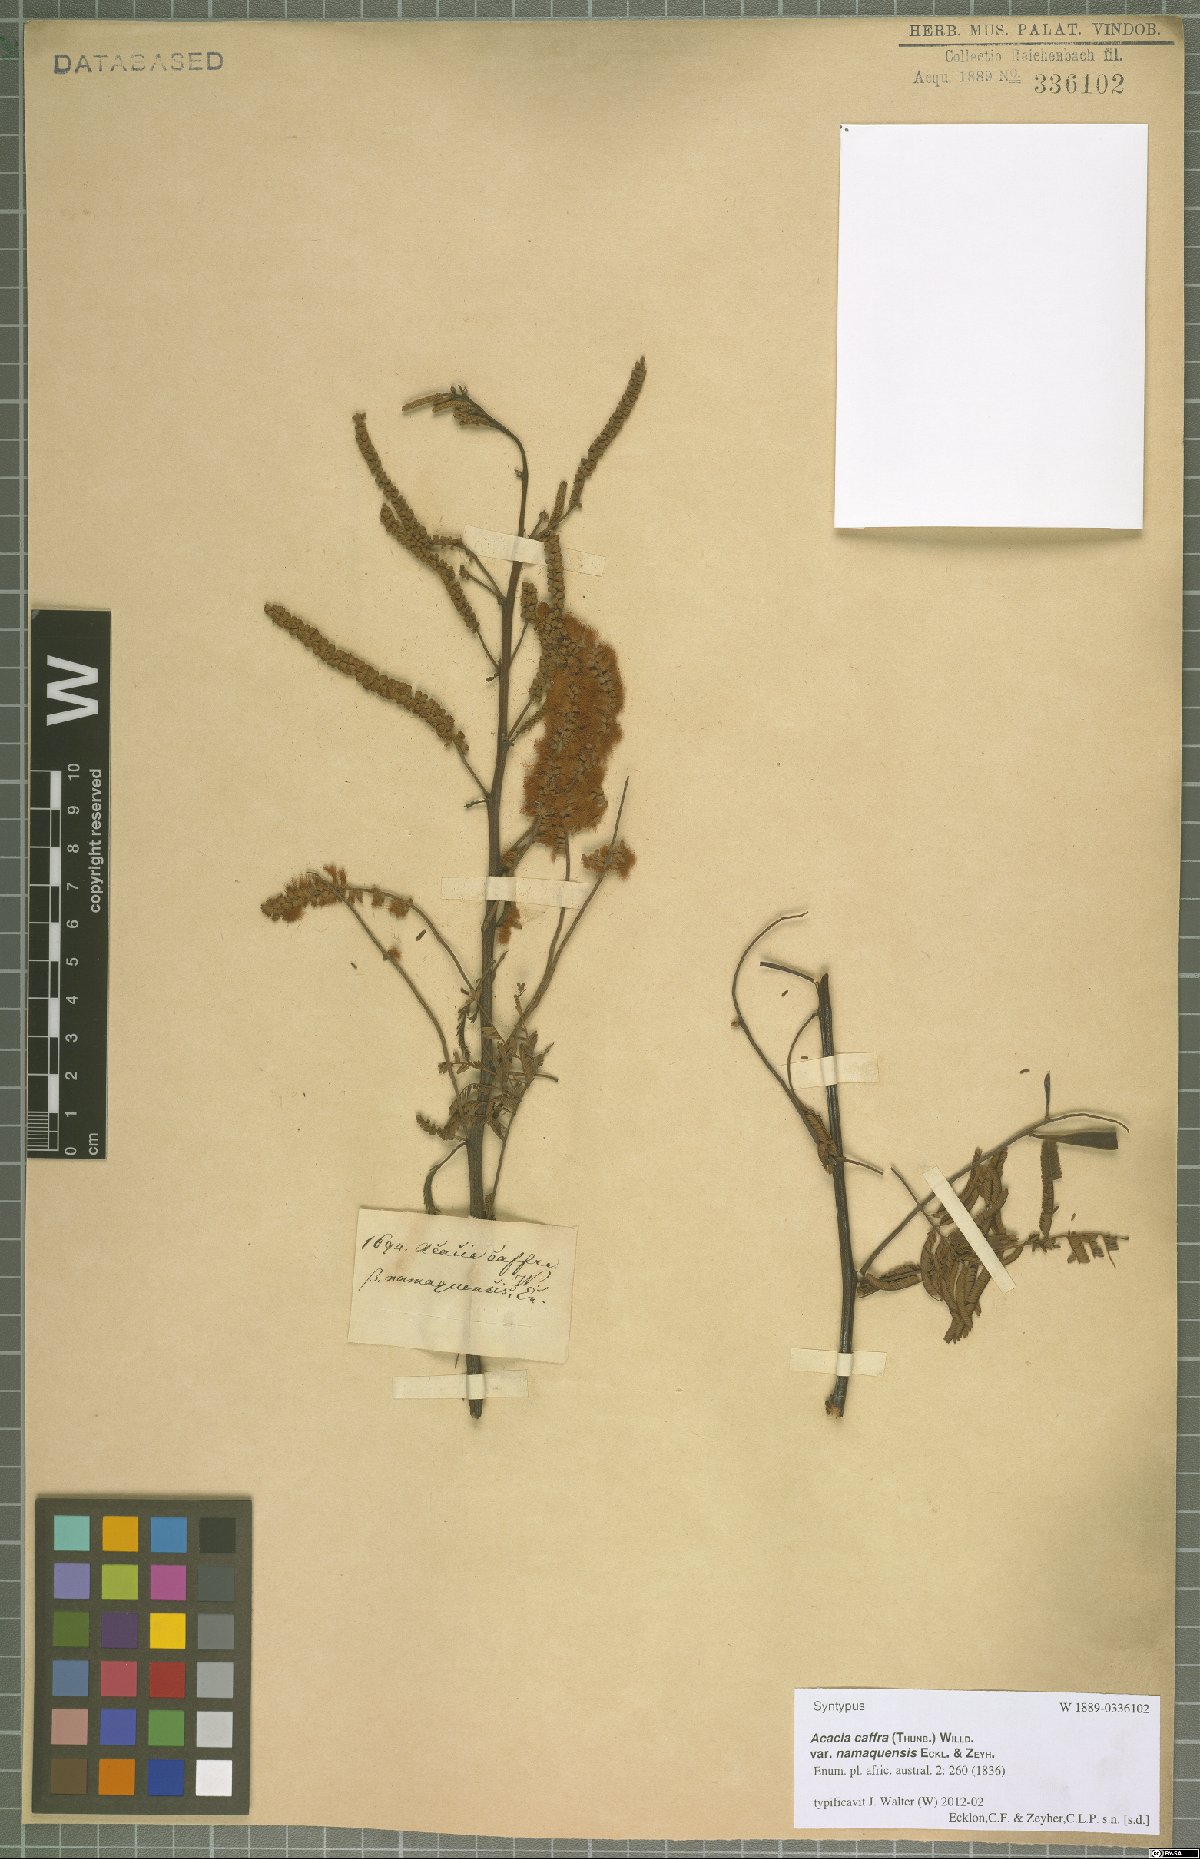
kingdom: Plantae
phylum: Tracheophyta
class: Magnoliopsida
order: Fabales
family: Fabaceae
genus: Senegalia
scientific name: Senegalia caffra
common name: Cat thorn
